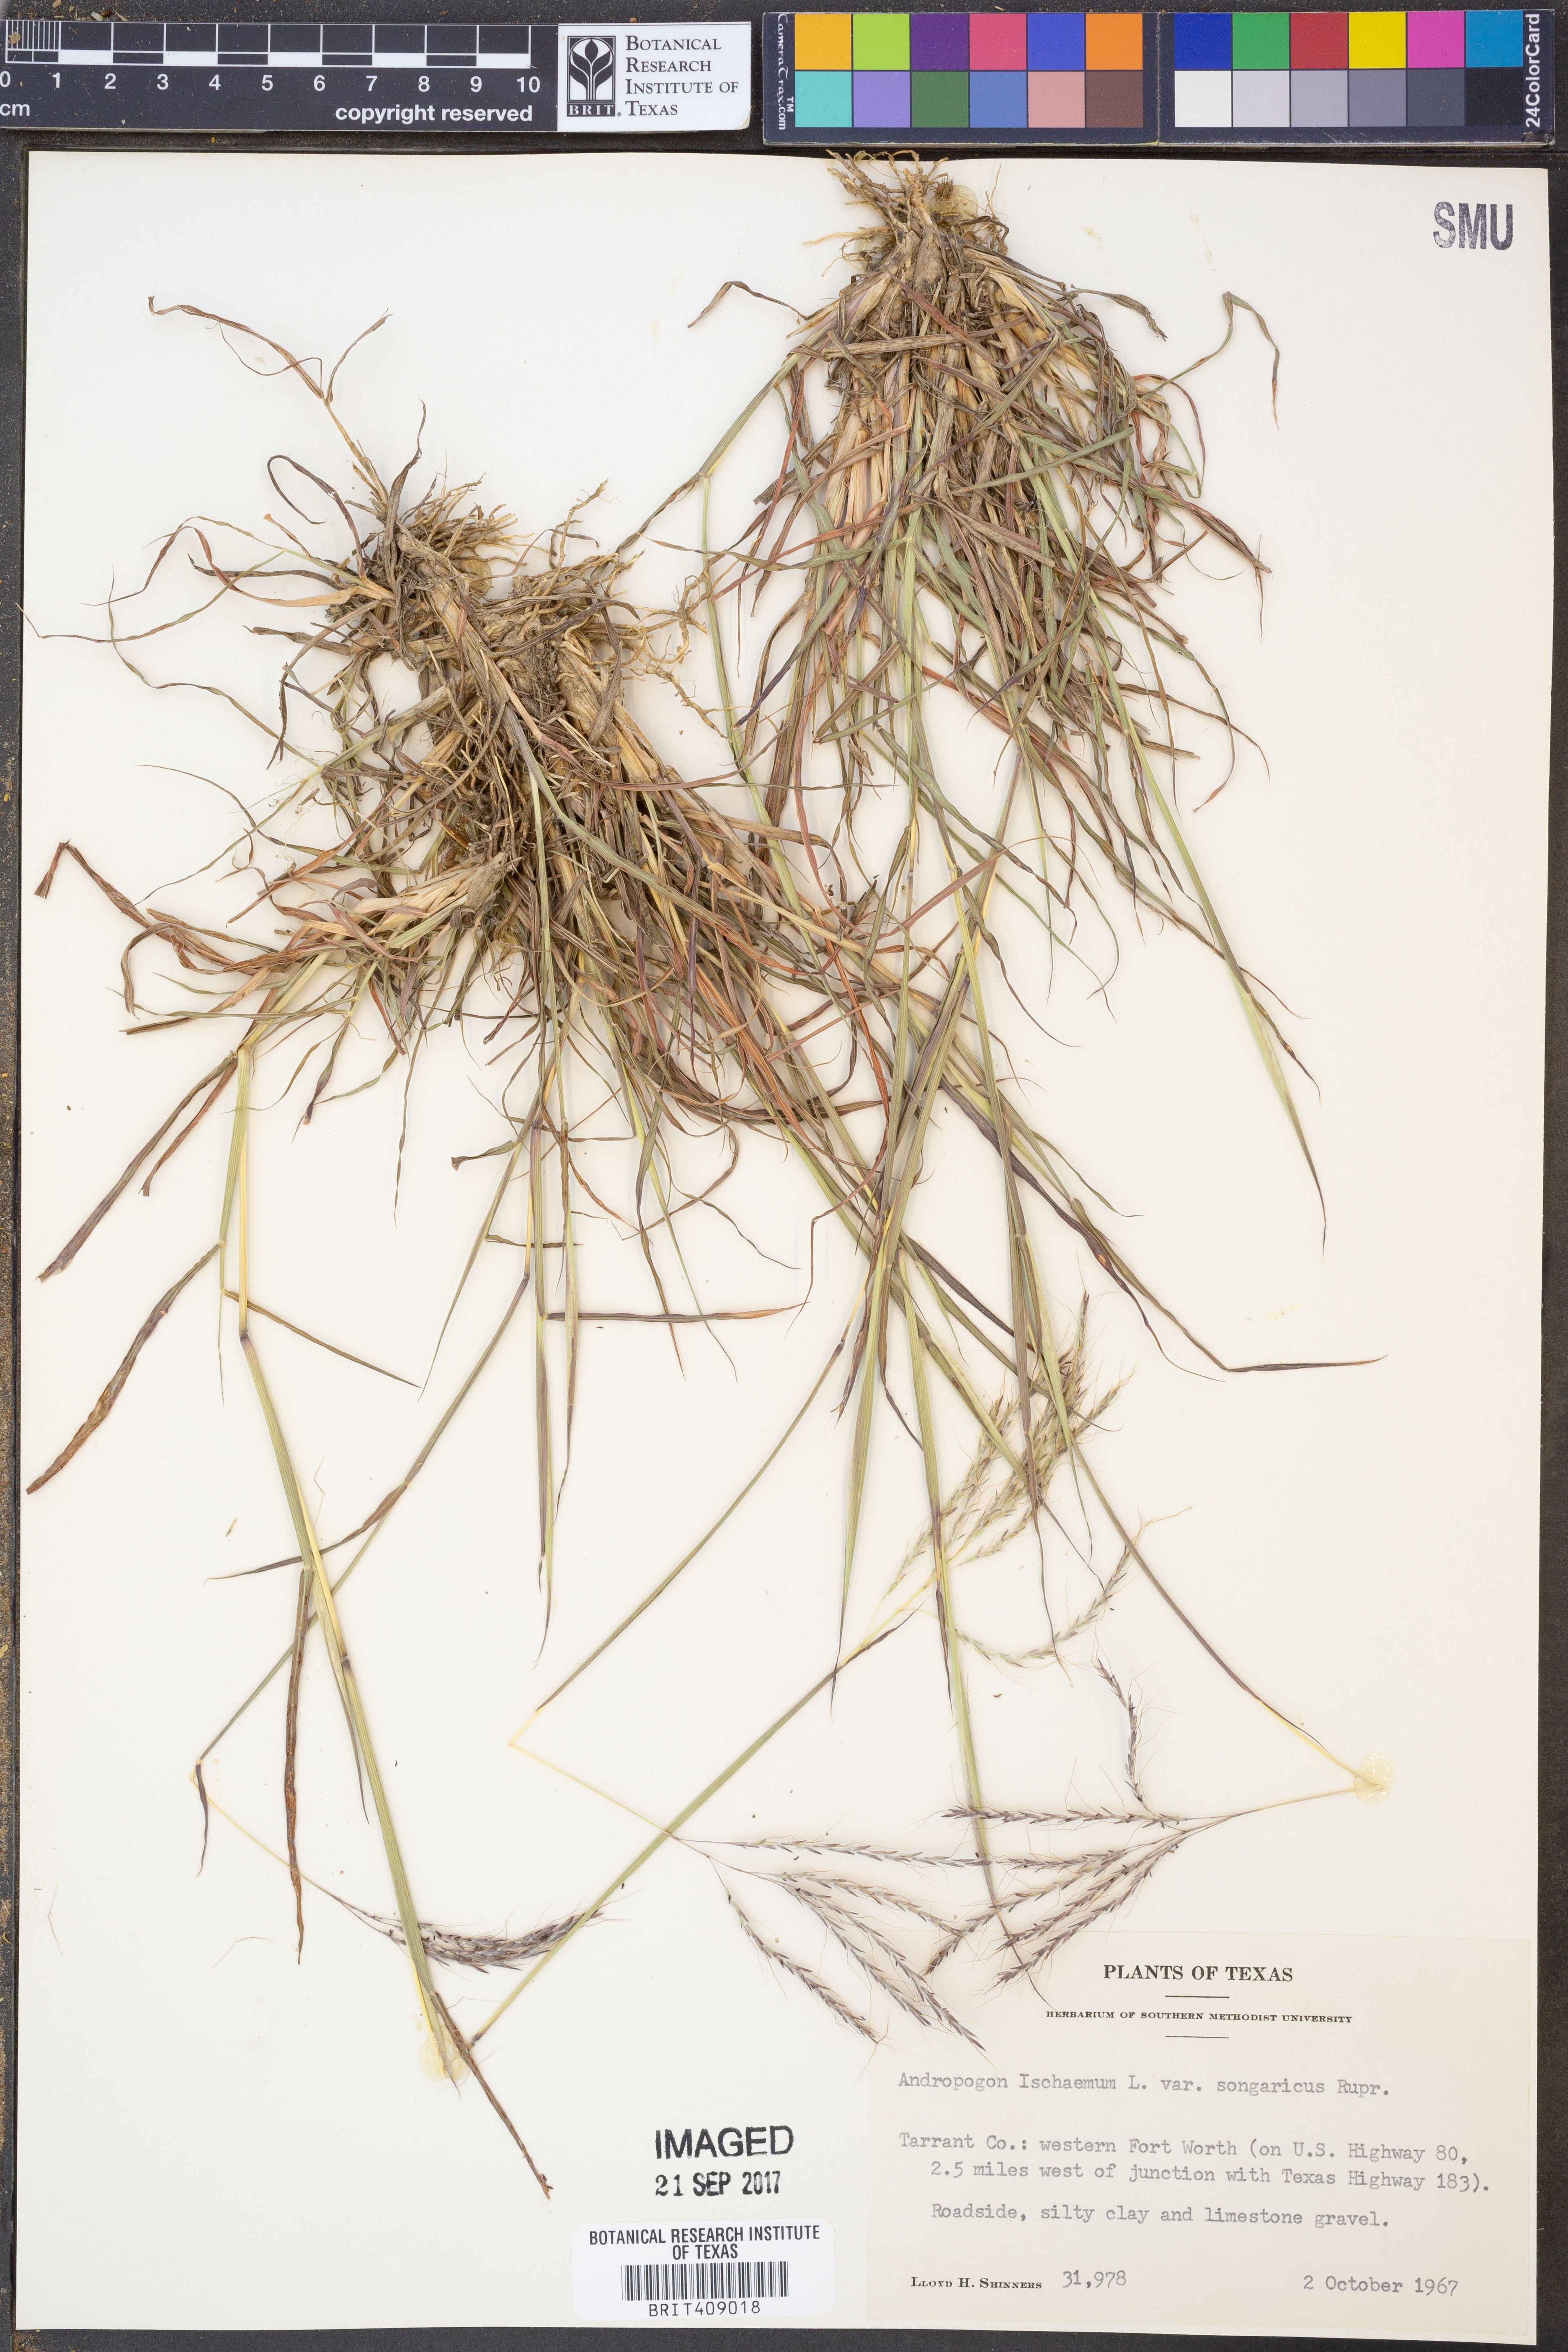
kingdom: Plantae
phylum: Tracheophyta
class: Liliopsida
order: Poales
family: Poaceae
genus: Bothriochloa
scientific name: Bothriochloa ischaemum
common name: Yellow bluestem
